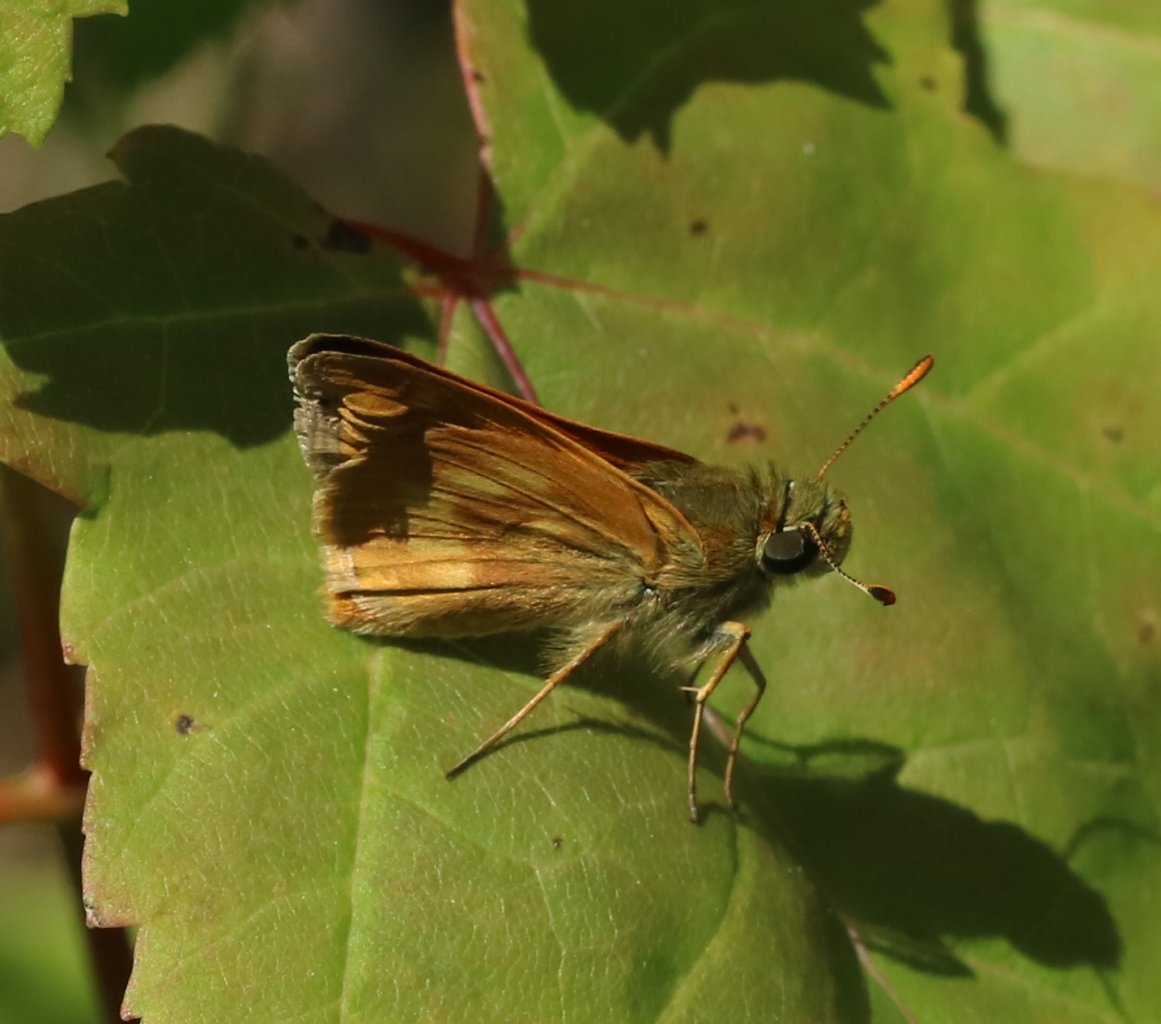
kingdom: Animalia
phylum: Arthropoda
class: Insecta
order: Lepidoptera
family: Hesperiidae
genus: Polites
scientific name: Polites
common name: Long Dash Skipper
